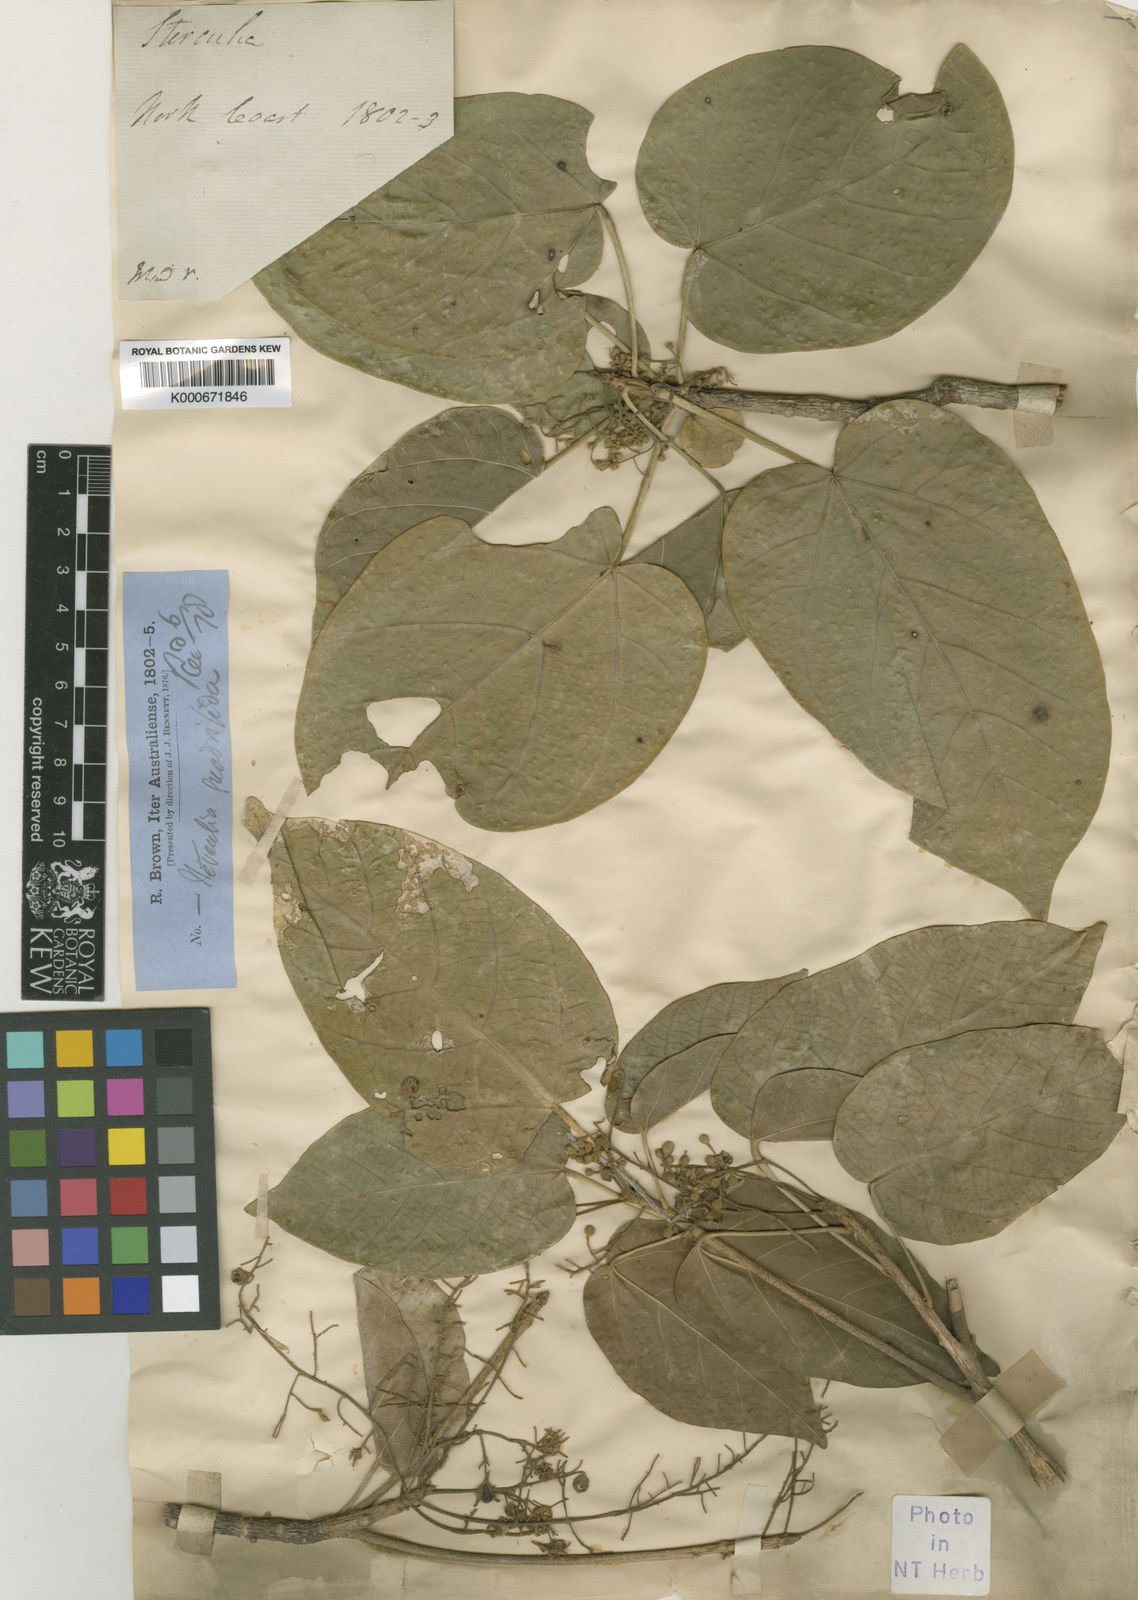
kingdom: Plantae
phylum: Tracheophyta
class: Magnoliopsida
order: Malvales
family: Malvaceae
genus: Sterculia
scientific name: Sterculia quadrifida
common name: Orange-fruit kurrajong
